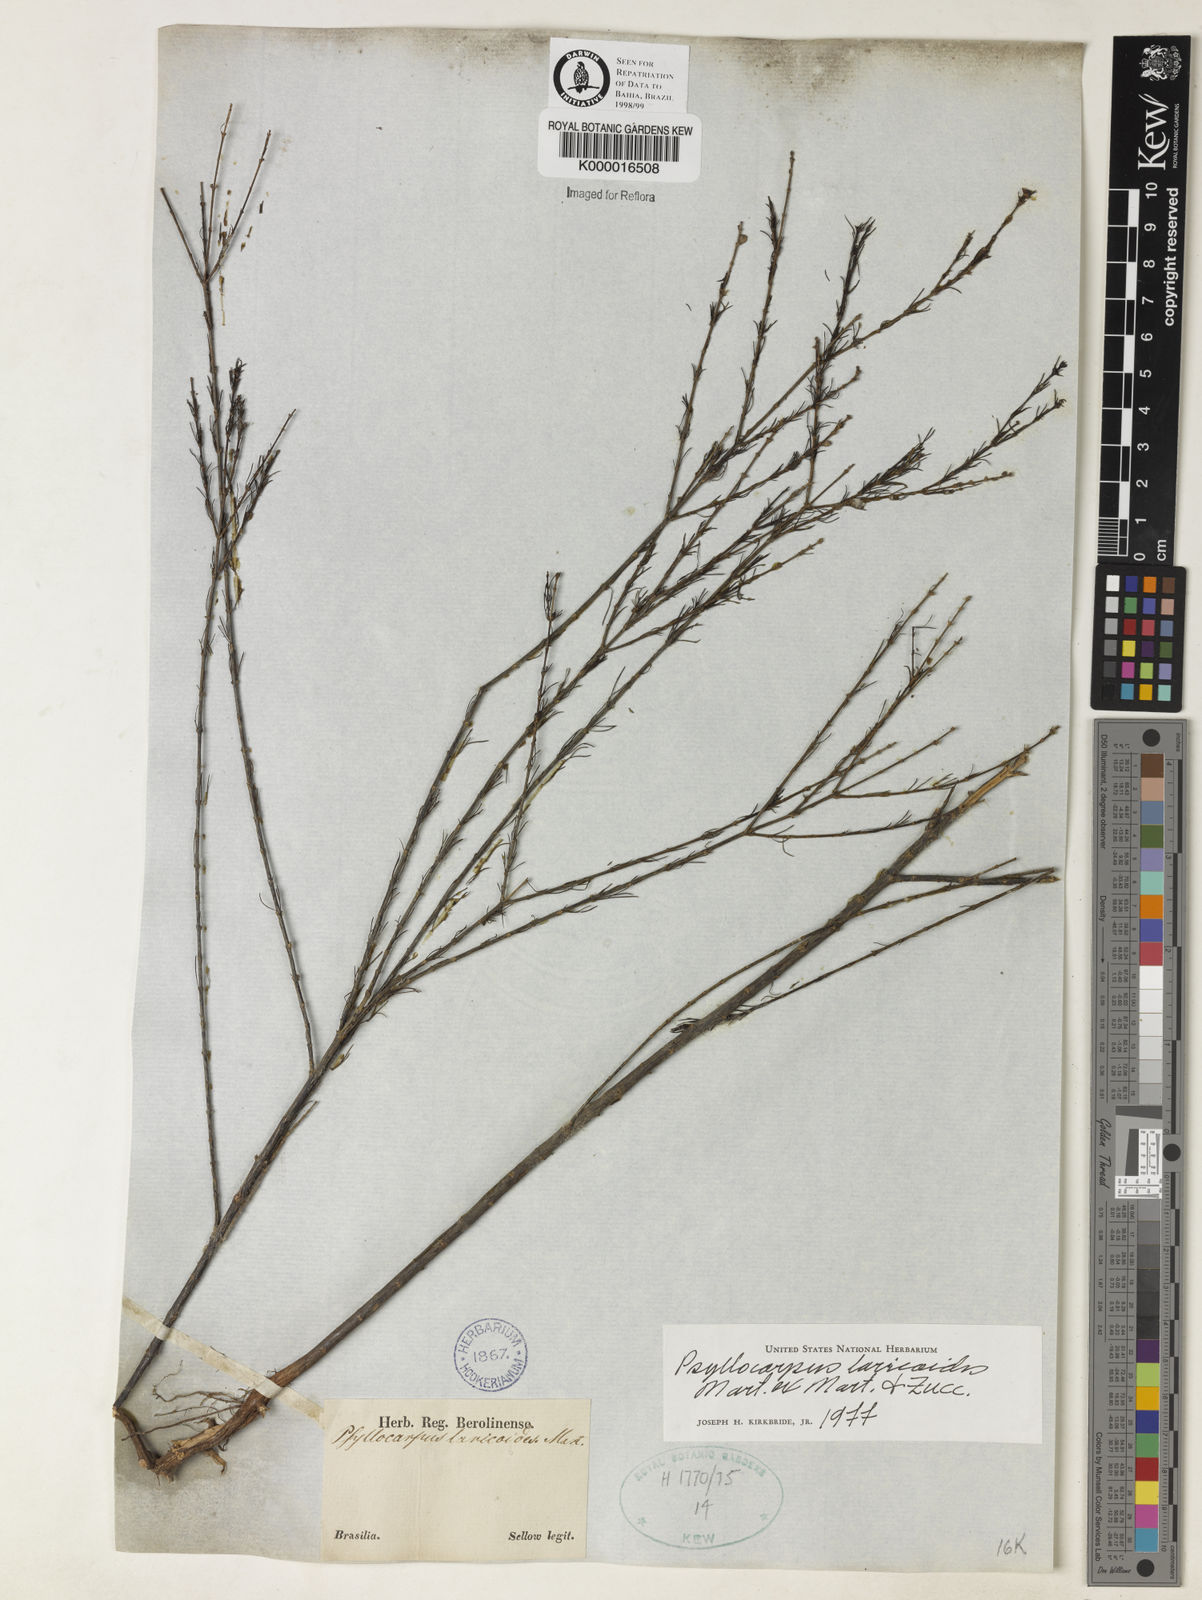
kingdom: Plantae
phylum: Tracheophyta
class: Magnoliopsida
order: Gentianales
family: Rubiaceae
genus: Psyllocarpus
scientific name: Psyllocarpus laricoides
